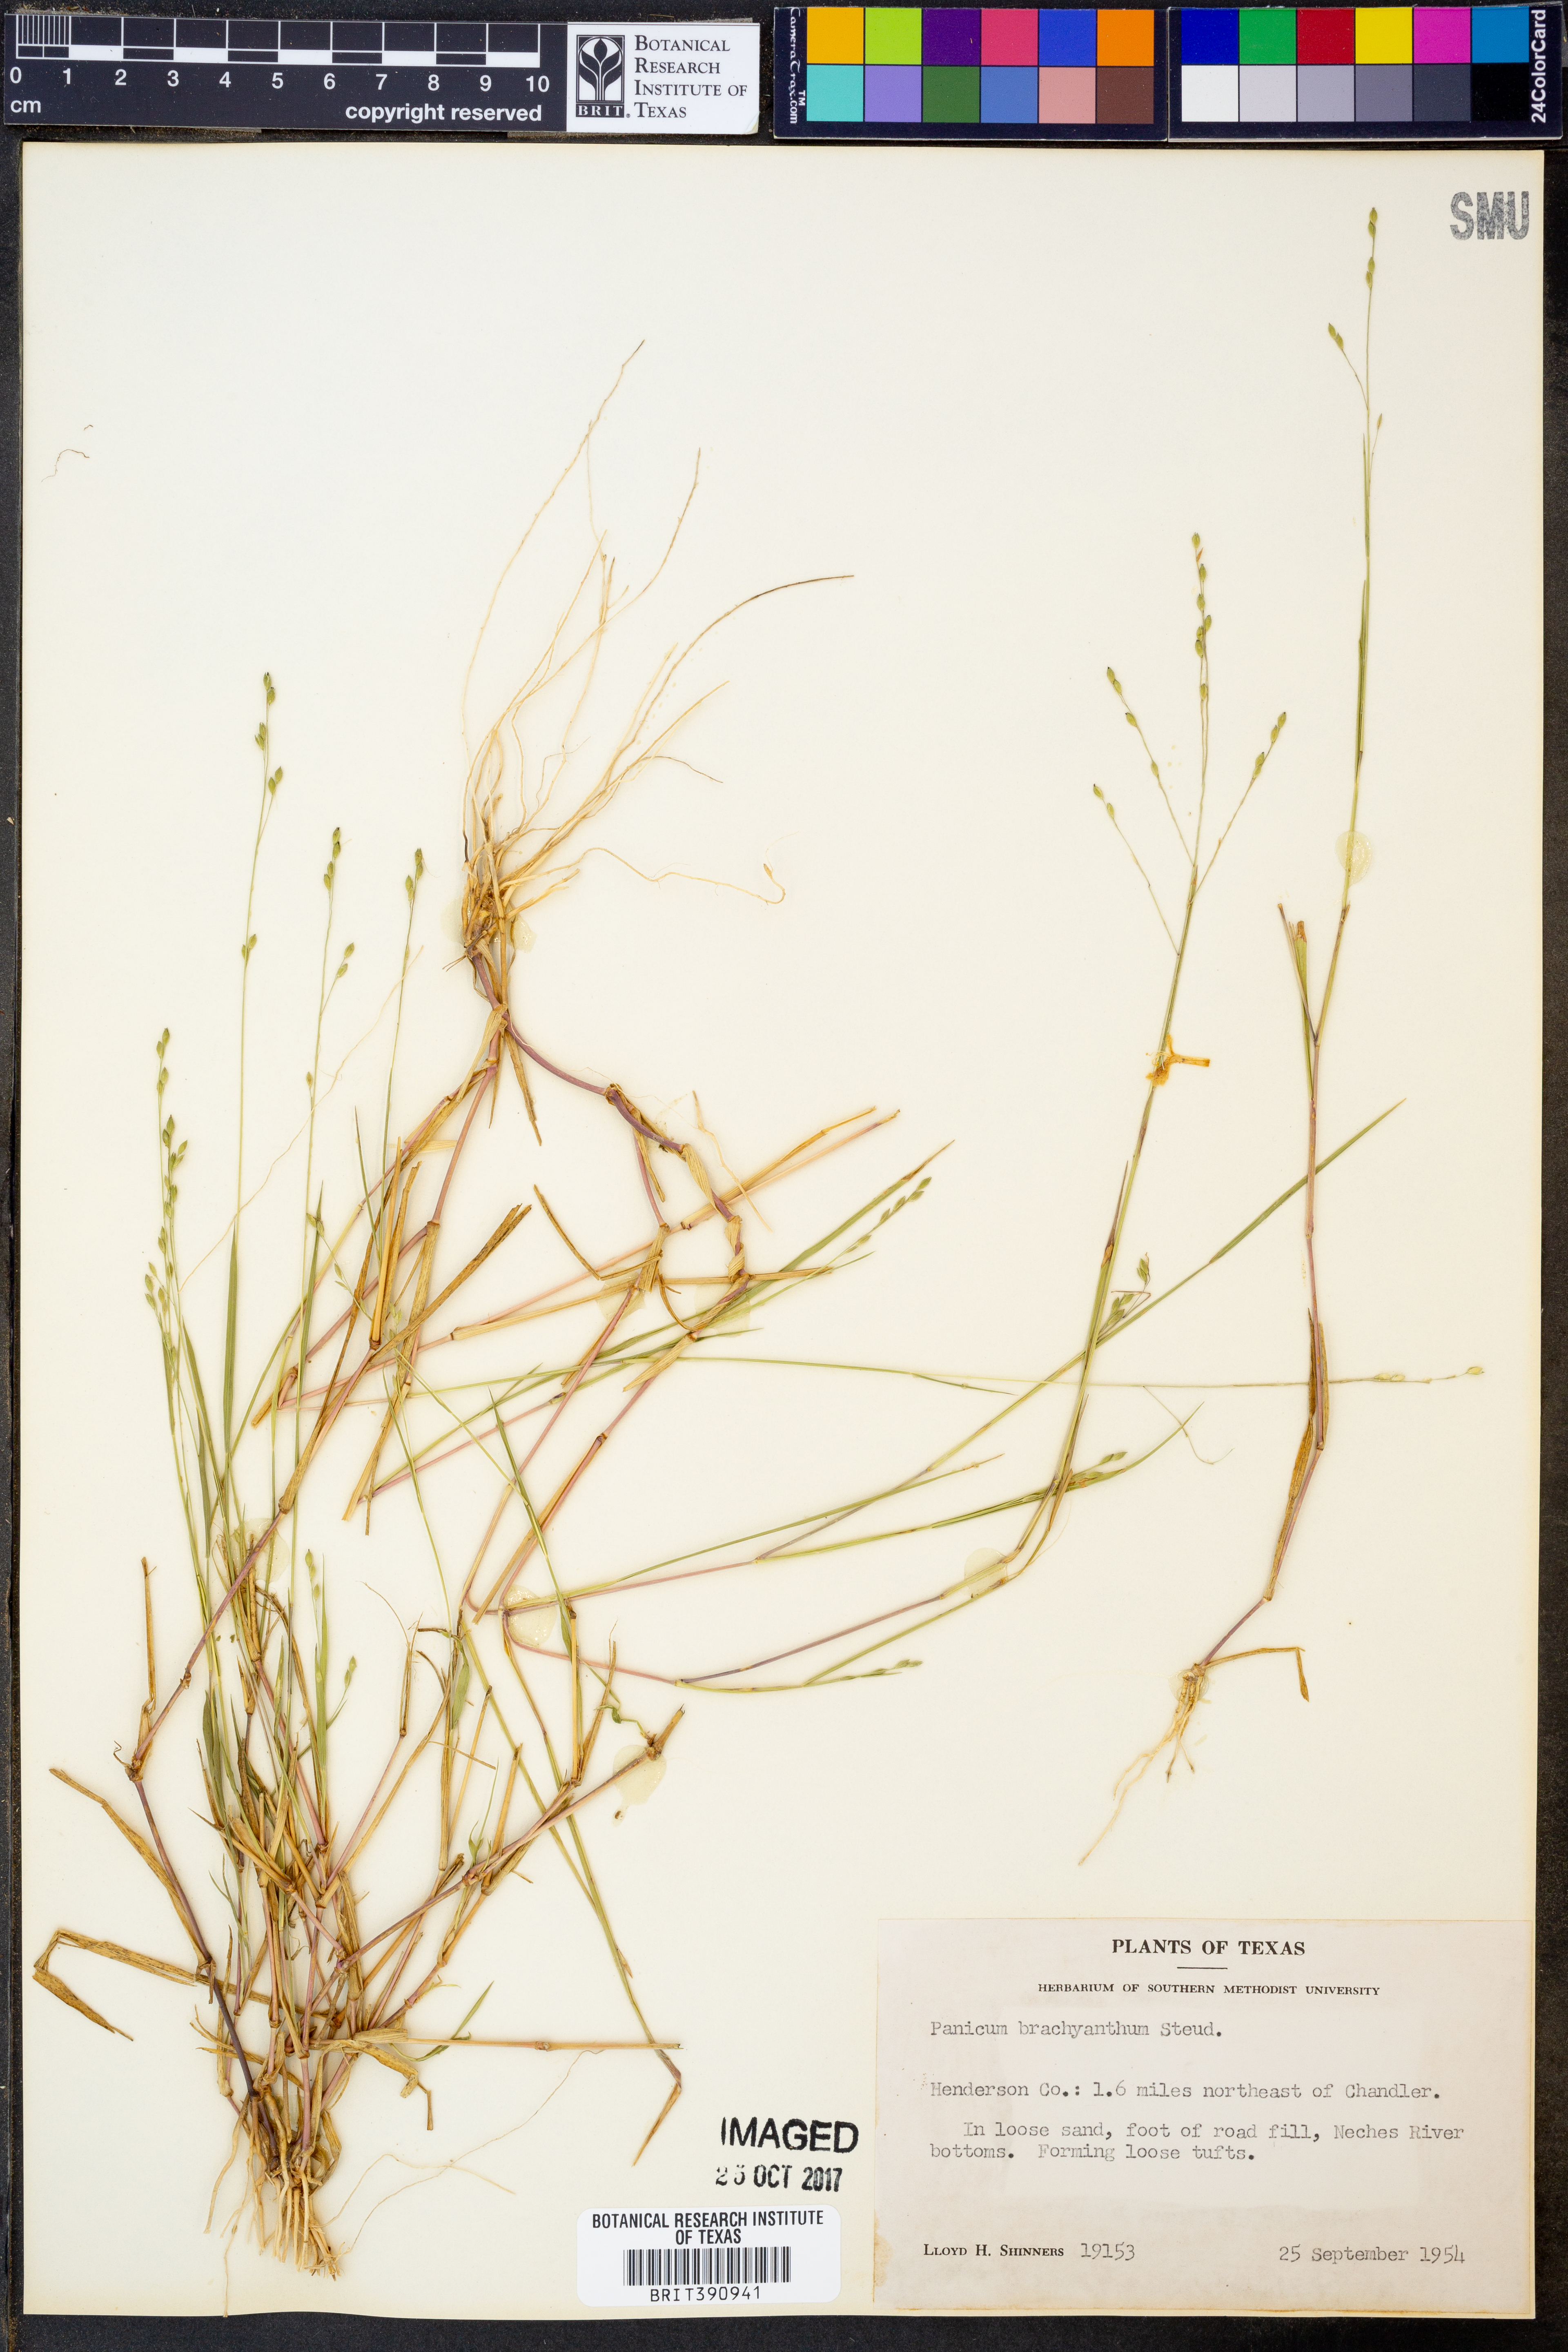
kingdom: Plantae
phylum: Tracheophyta
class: Liliopsida
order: Poales
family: Poaceae
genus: Kellochloa
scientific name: Kellochloa brachyantha
